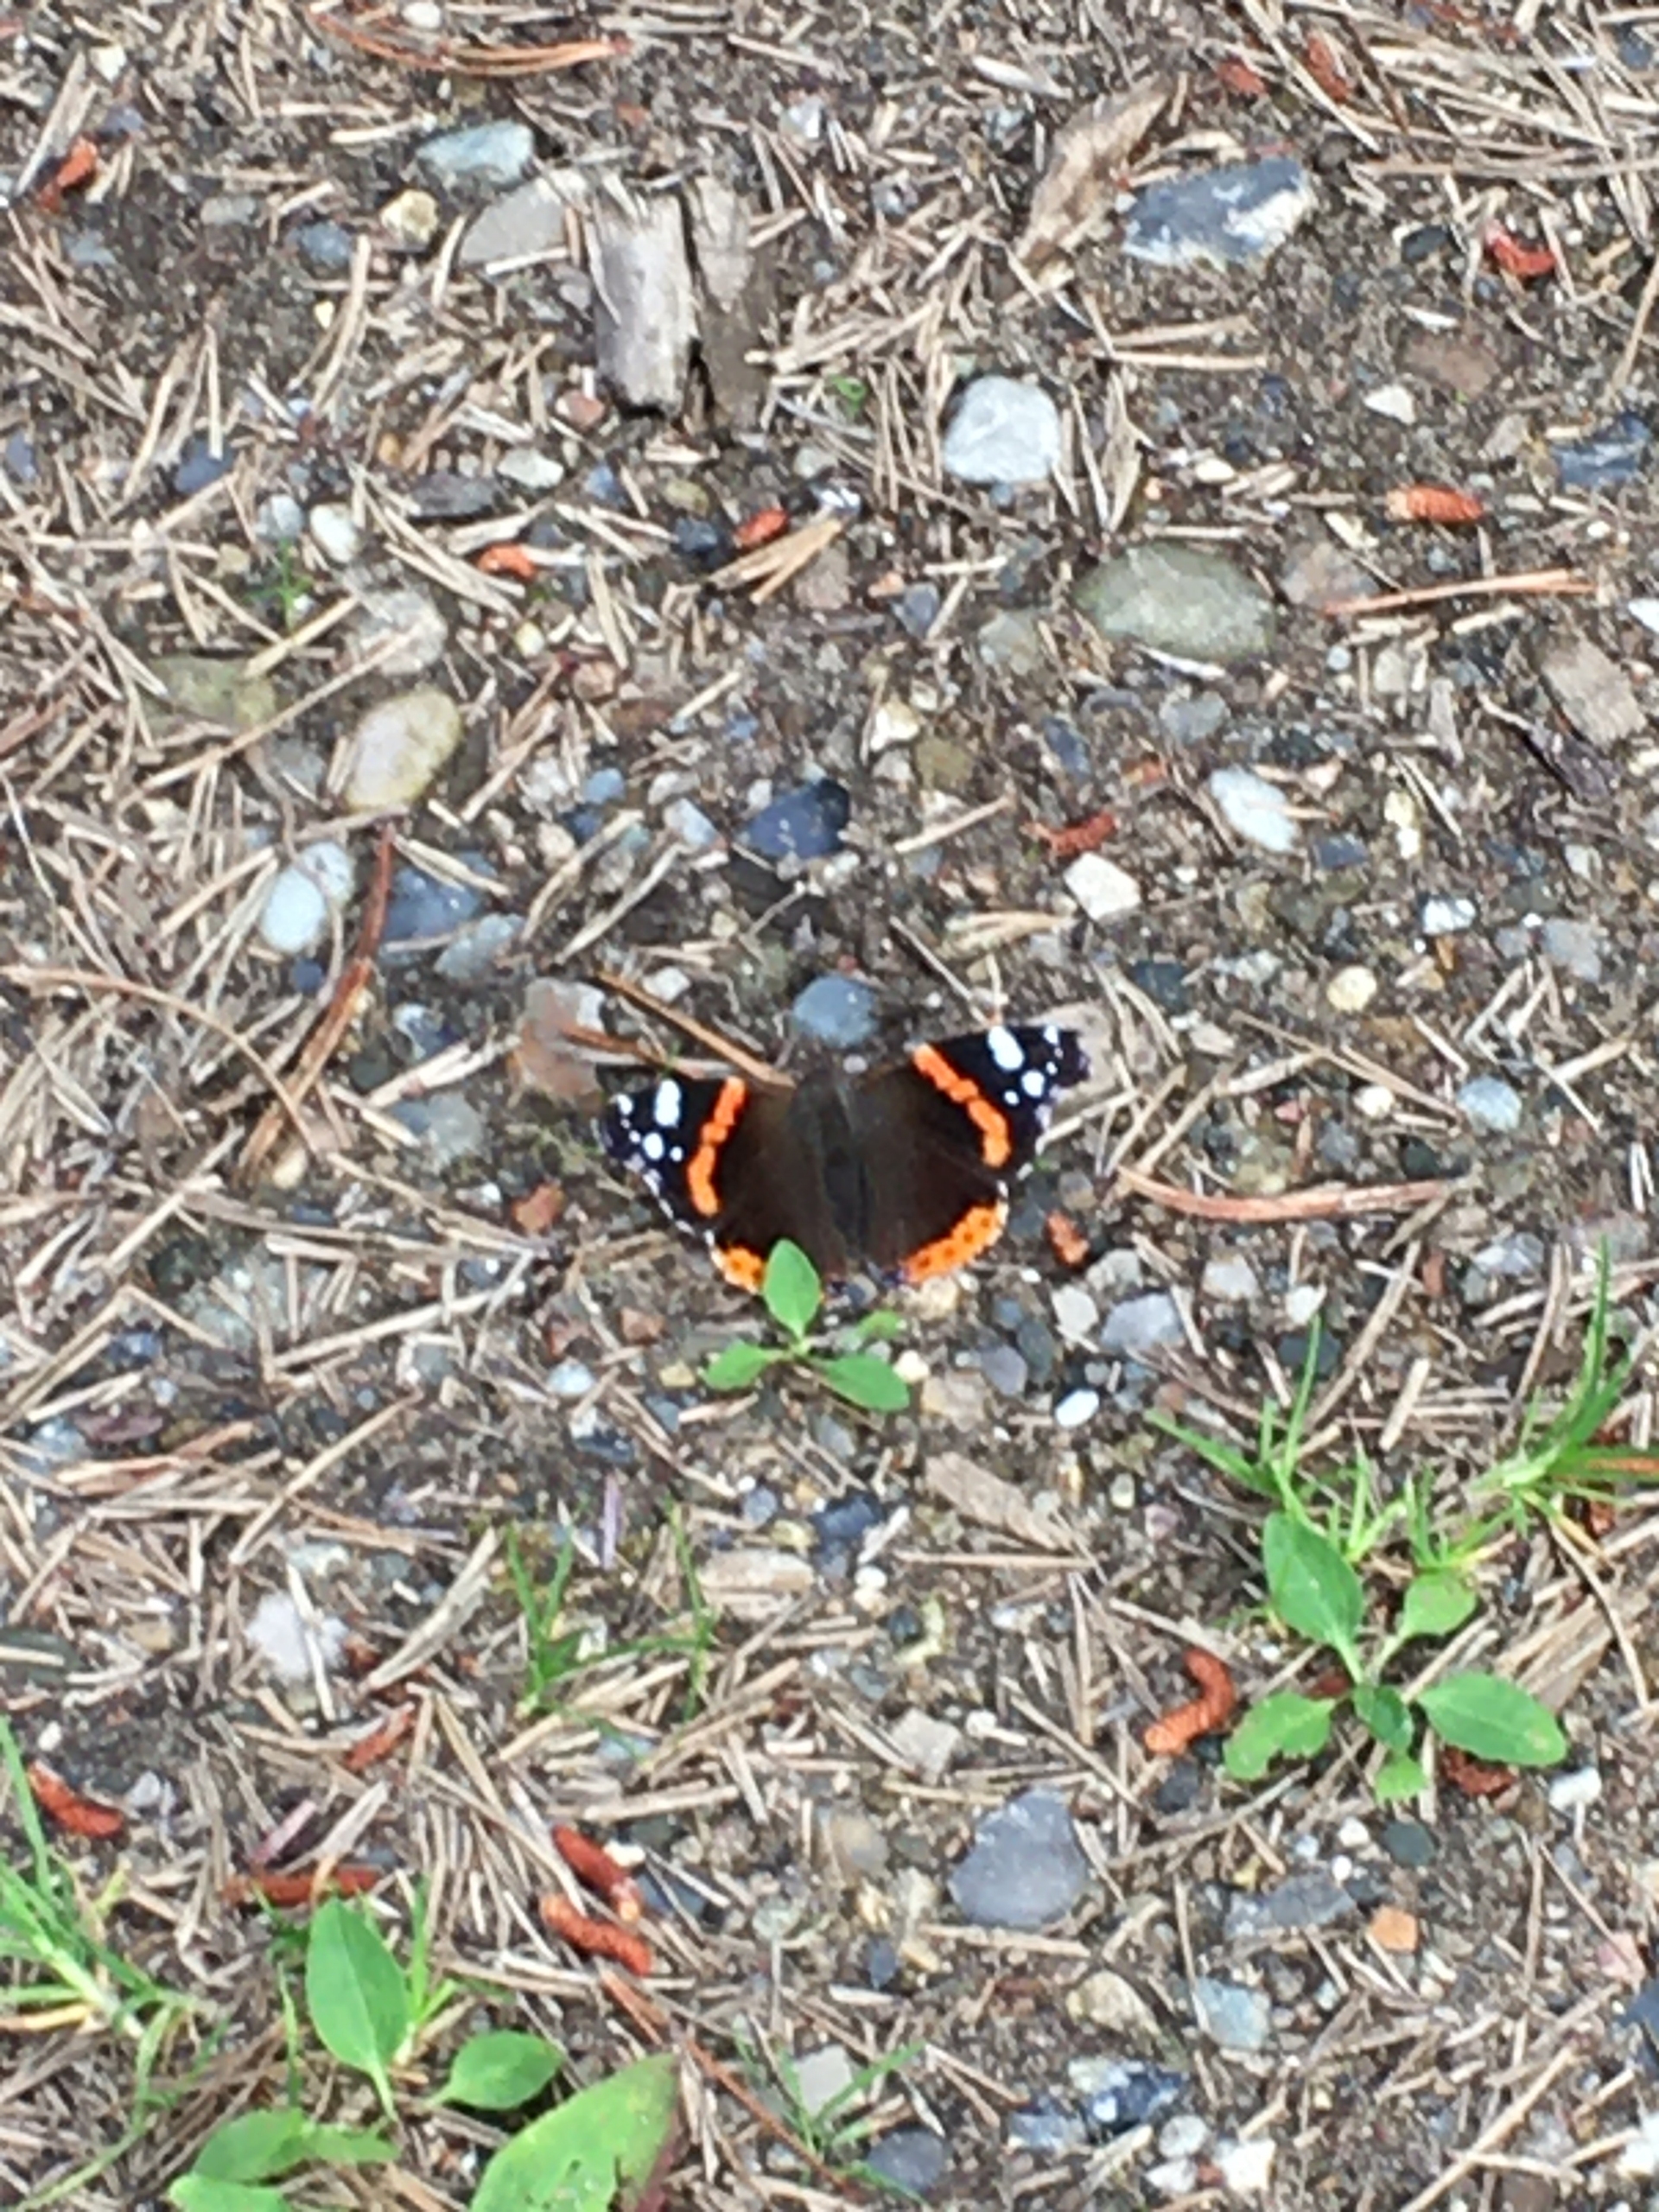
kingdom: Animalia
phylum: Arthropoda
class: Insecta
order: Lepidoptera
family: Nymphalidae
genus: Vanessa
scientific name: Vanessa atalanta
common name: Admiral
